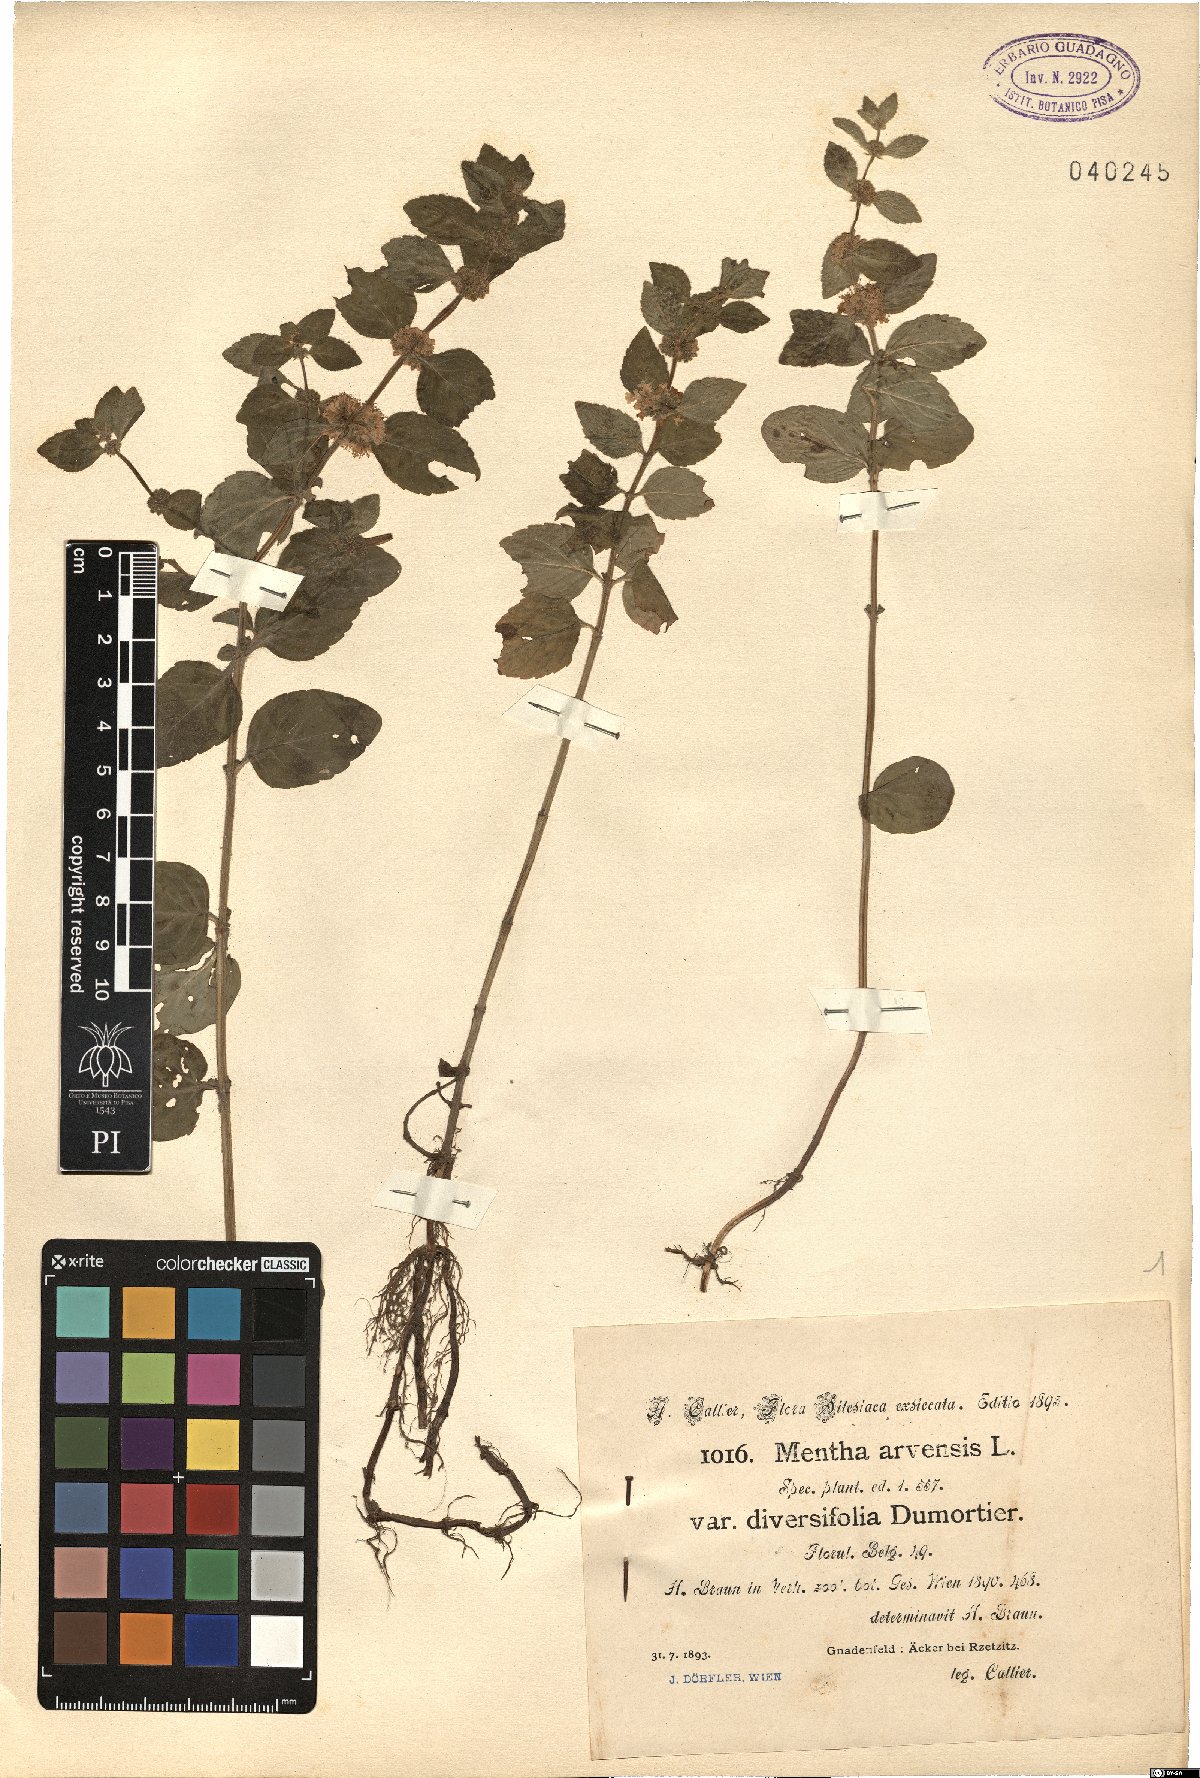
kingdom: Plantae
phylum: Tracheophyta
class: Magnoliopsida
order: Lamiales
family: Lamiaceae
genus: Mentha
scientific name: Mentha arvensis
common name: Corn mint
